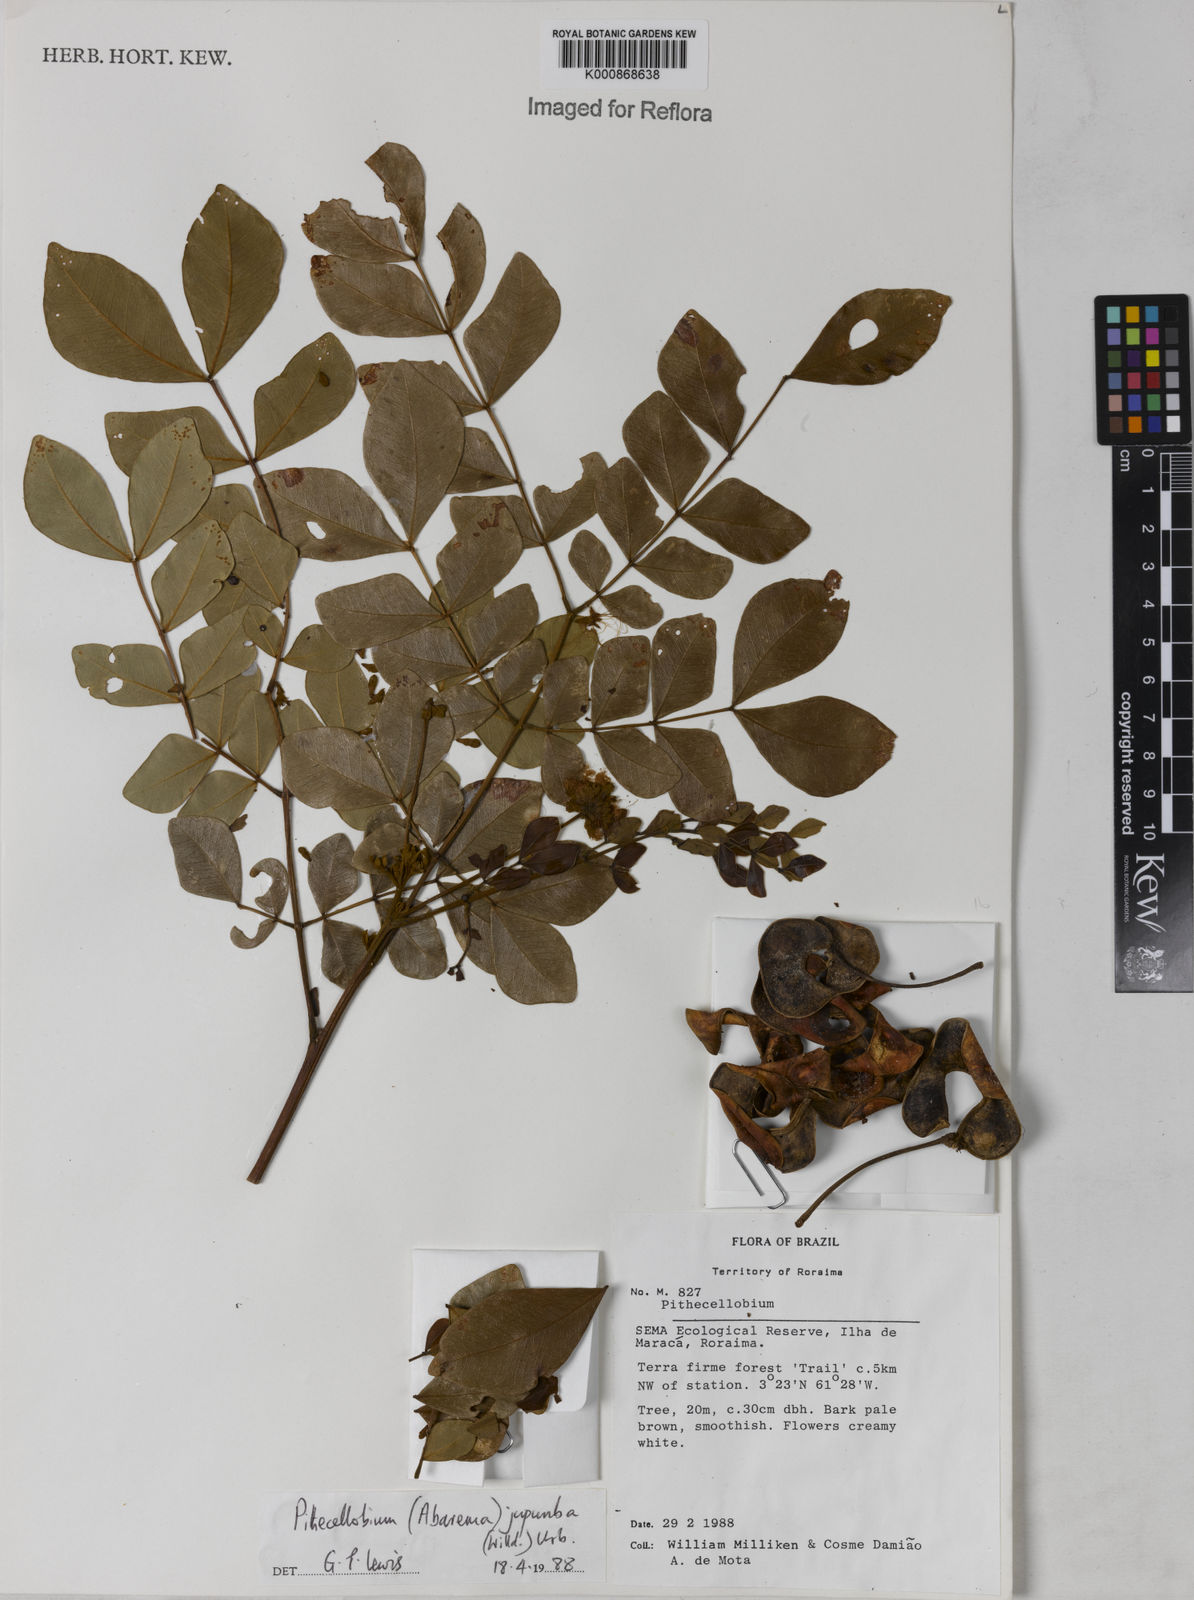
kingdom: Plantae
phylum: Tracheophyta
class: Magnoliopsida
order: Fabales
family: Fabaceae
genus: Jupunba
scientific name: Jupunba trapezifolia
